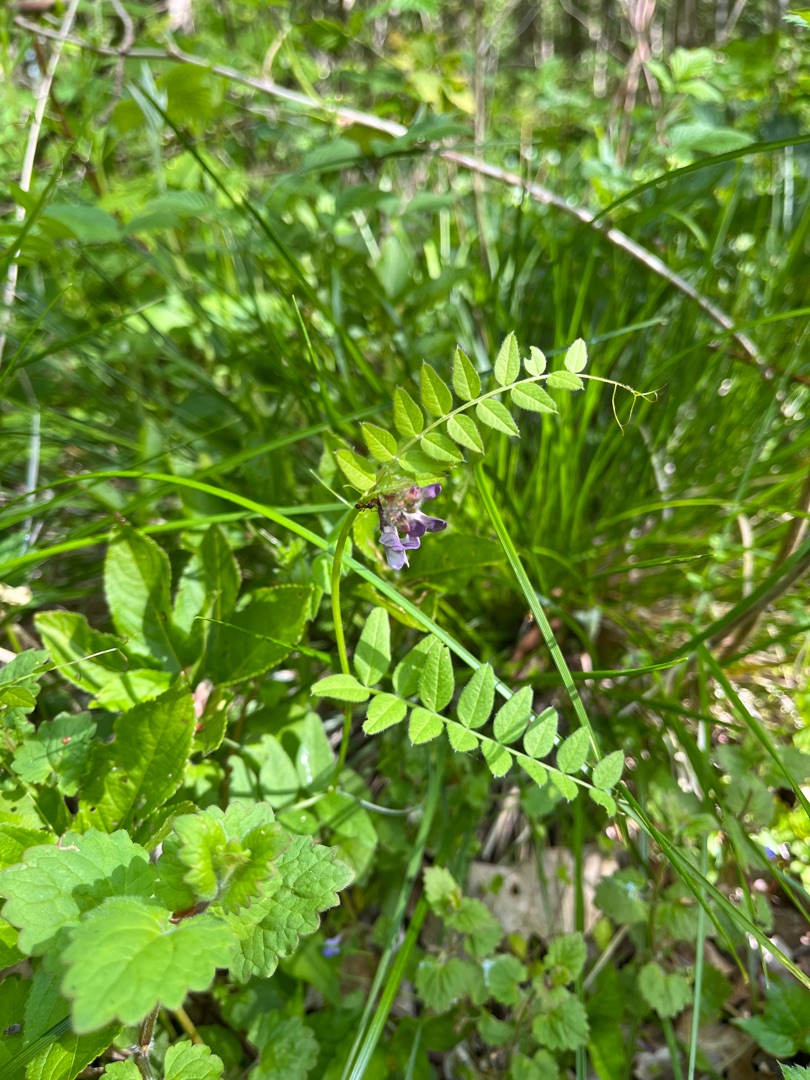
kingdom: Plantae
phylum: Tracheophyta
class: Magnoliopsida
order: Fabales
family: Fabaceae
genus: Vicia
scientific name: Vicia sepium
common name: Gærde-vikke
